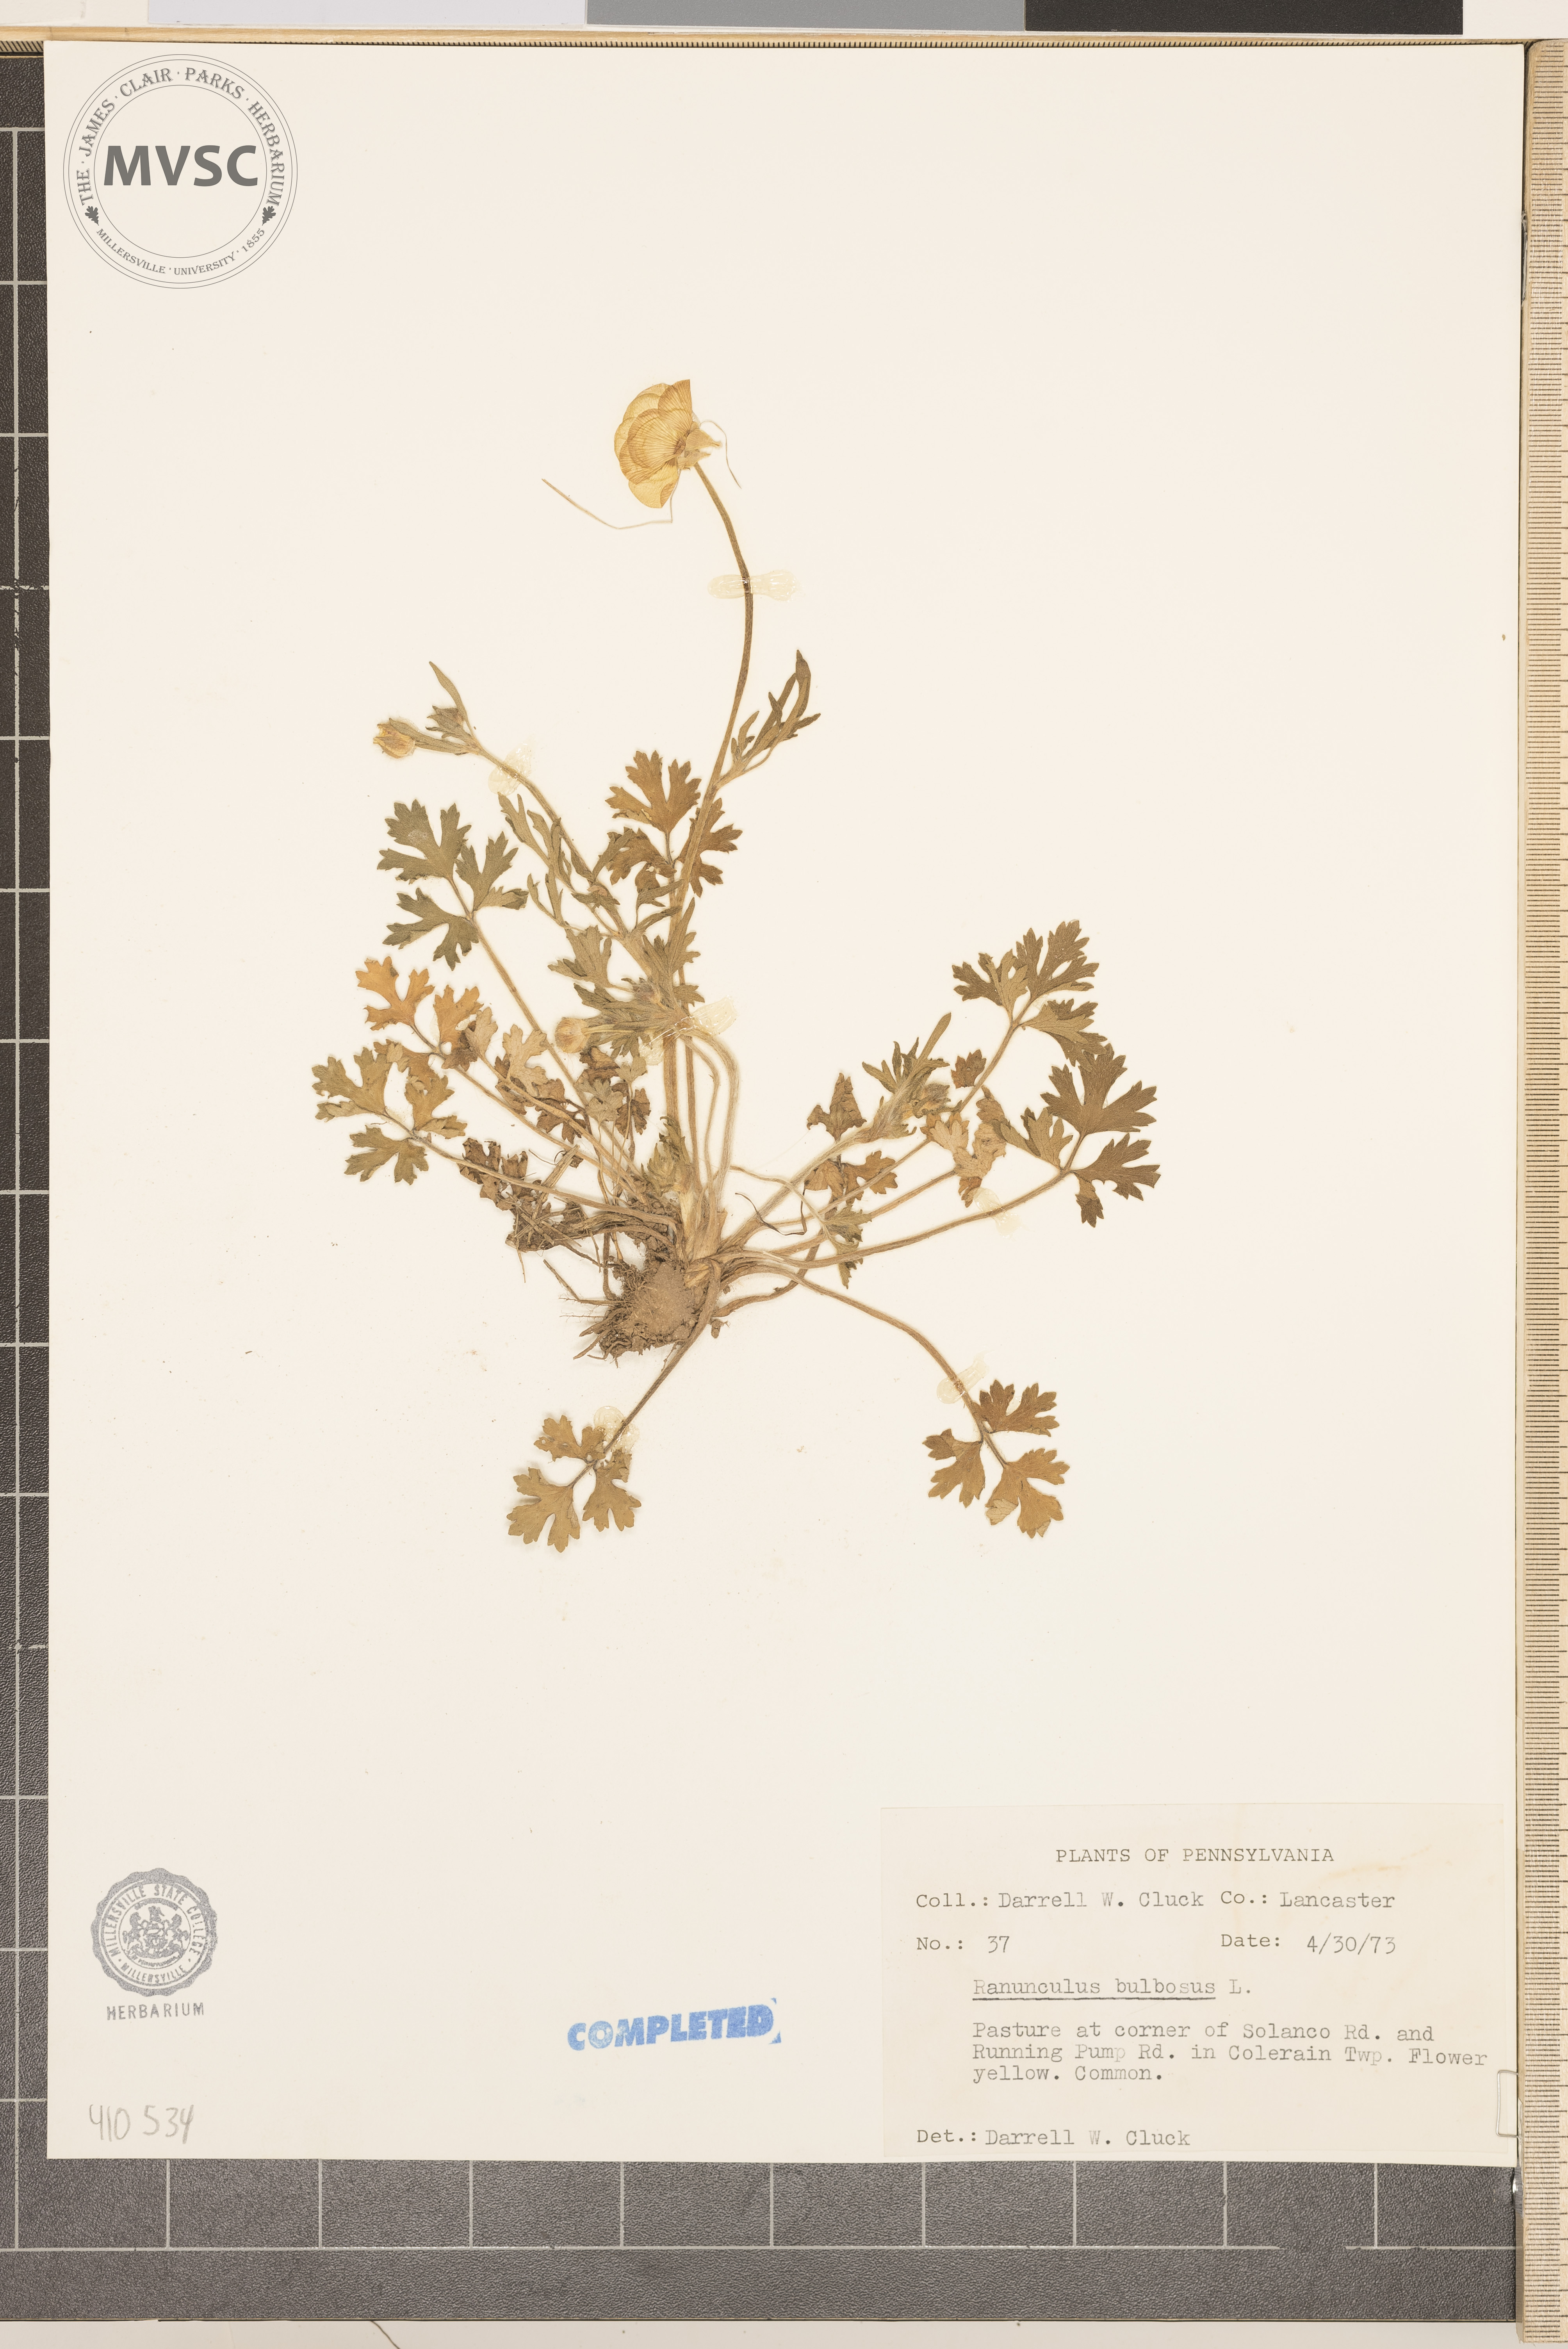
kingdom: Plantae
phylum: Tracheophyta
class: Magnoliopsida
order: Ranunculales
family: Ranunculaceae
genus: Ranunculus
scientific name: Ranunculus bulbosus
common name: Bulbous buttercup
